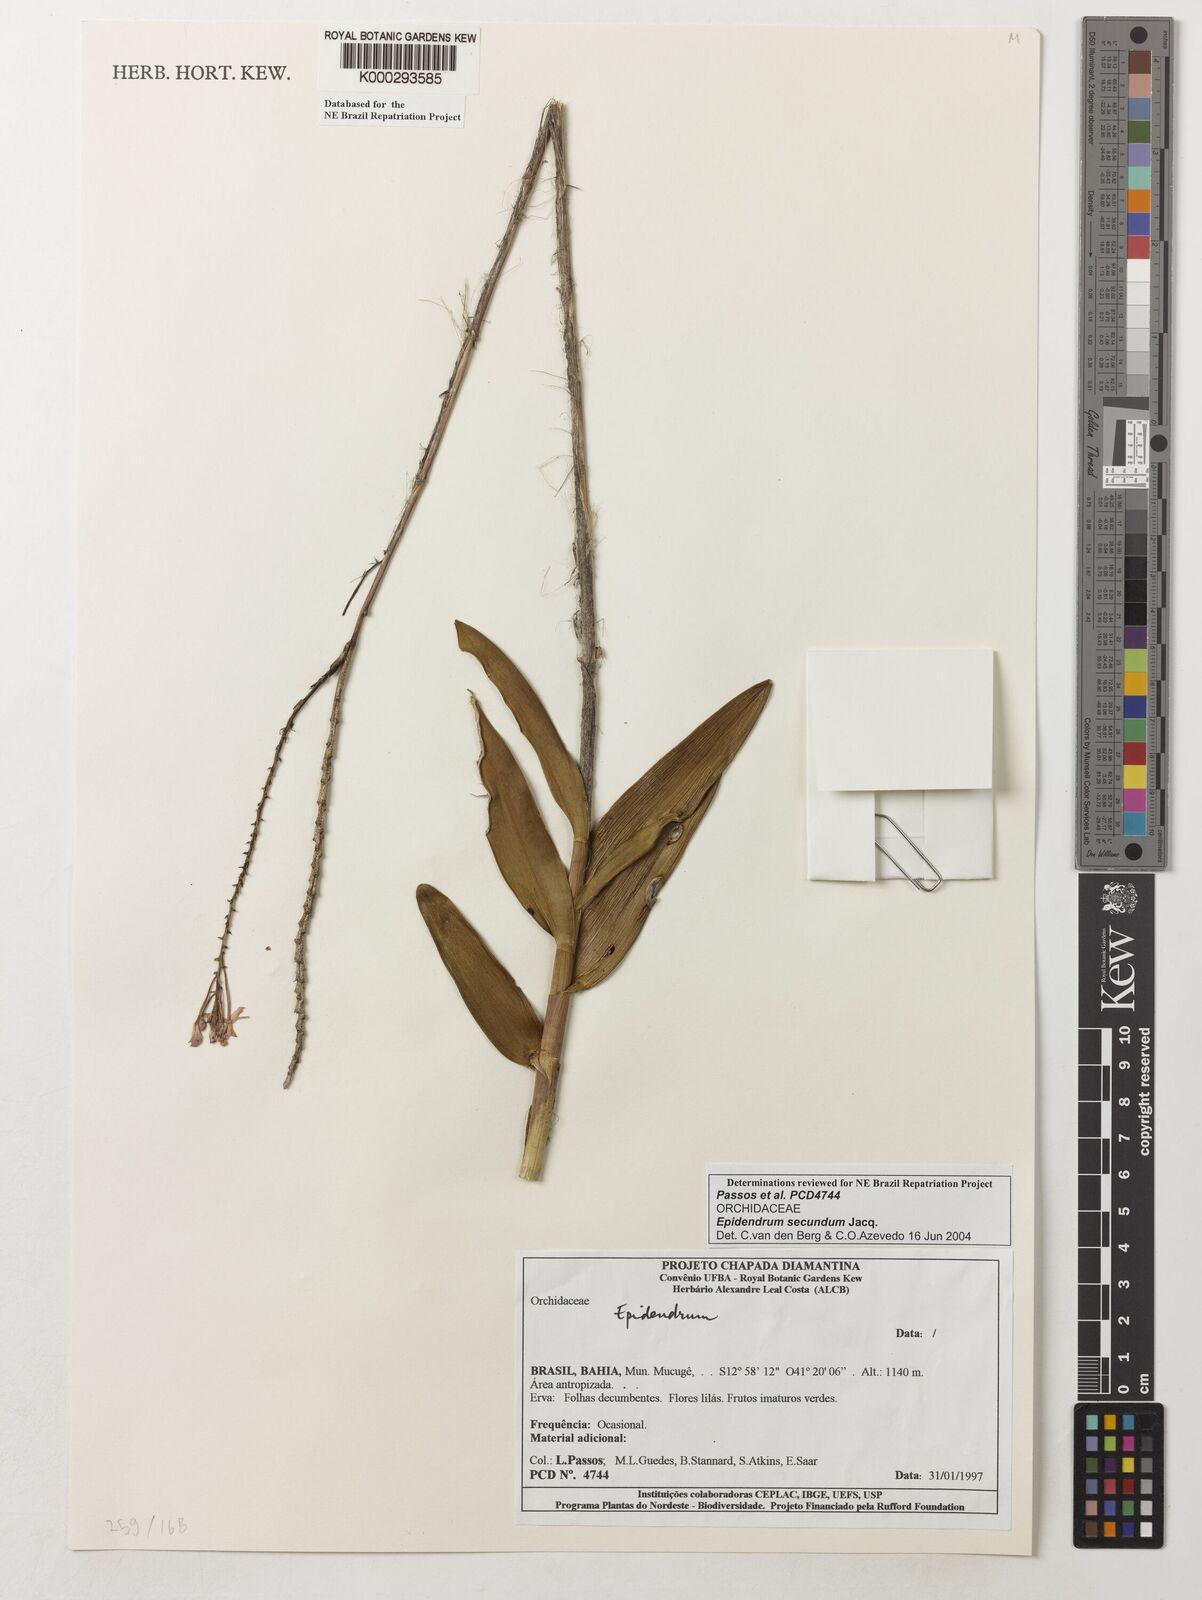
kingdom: Plantae
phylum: Tracheophyta
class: Liliopsida
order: Asparagales
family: Orchidaceae
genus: Epidendrum
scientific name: Epidendrum secundum
